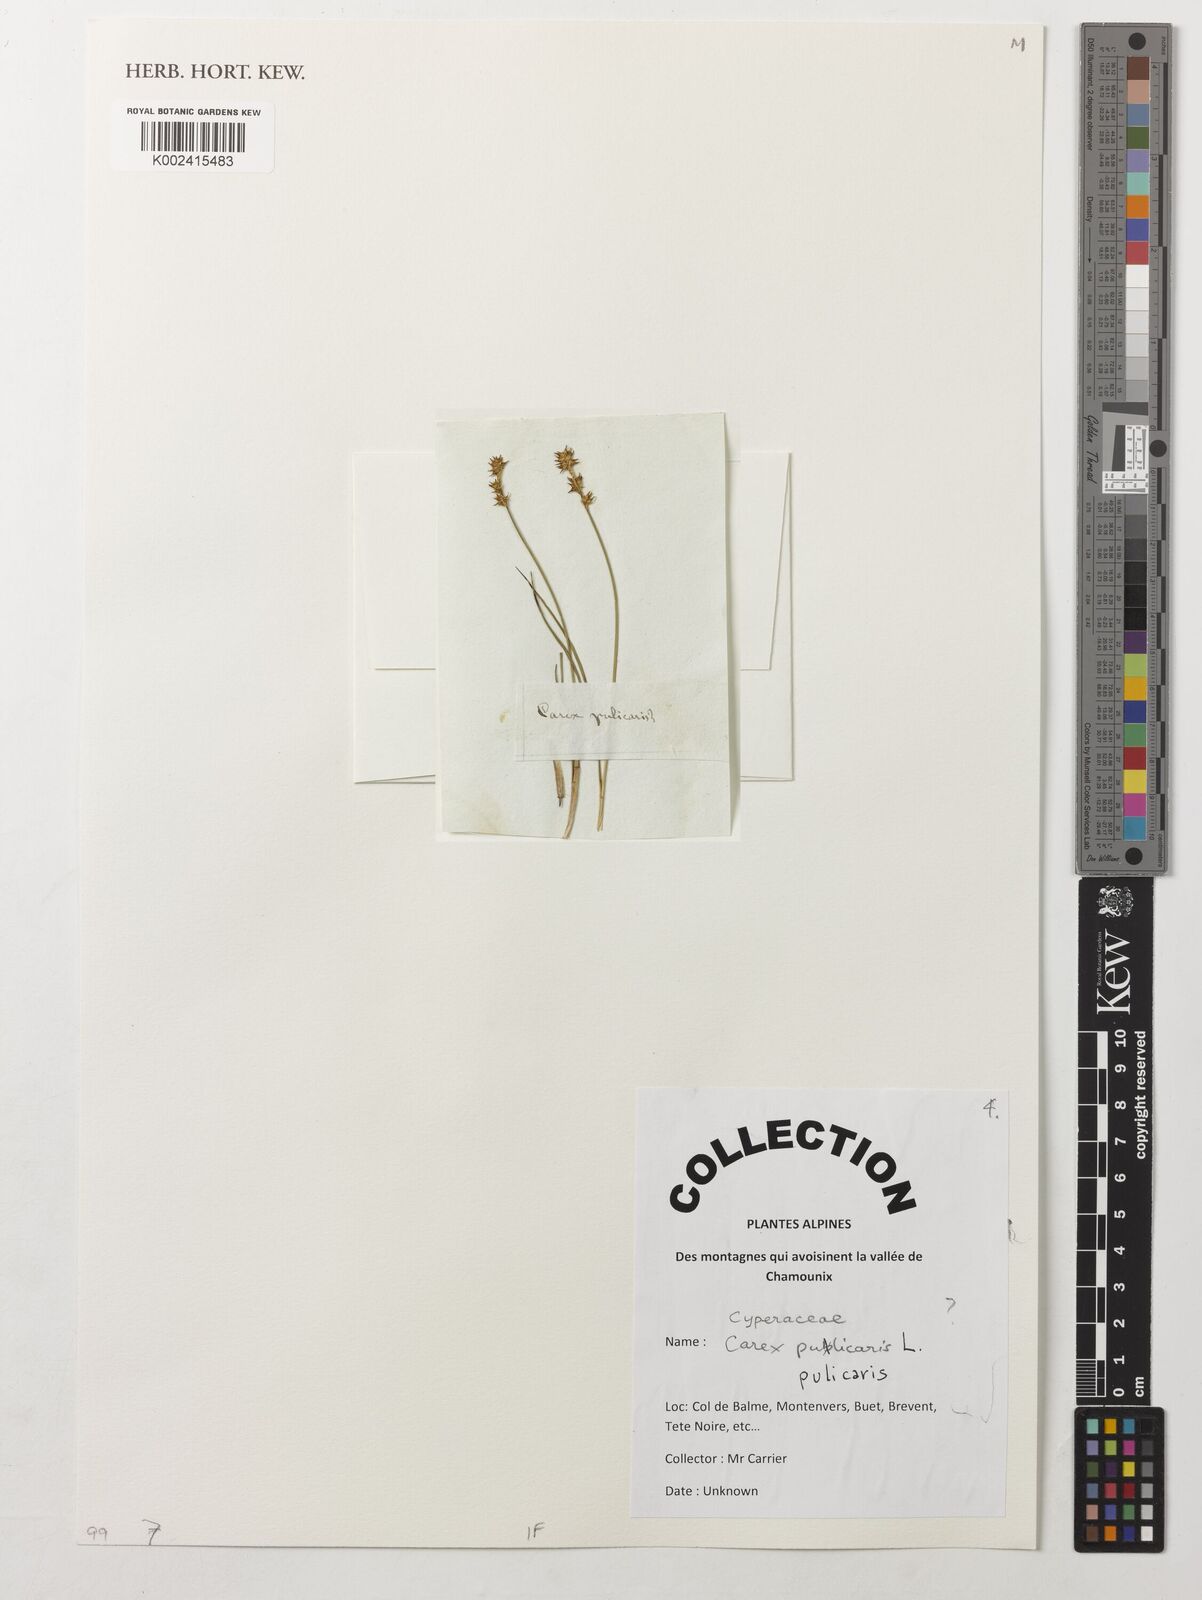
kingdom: Plantae
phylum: Tracheophyta
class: Liliopsida
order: Poales
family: Cyperaceae
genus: Carex
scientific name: Carex pulicaris
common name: Flea sedge
